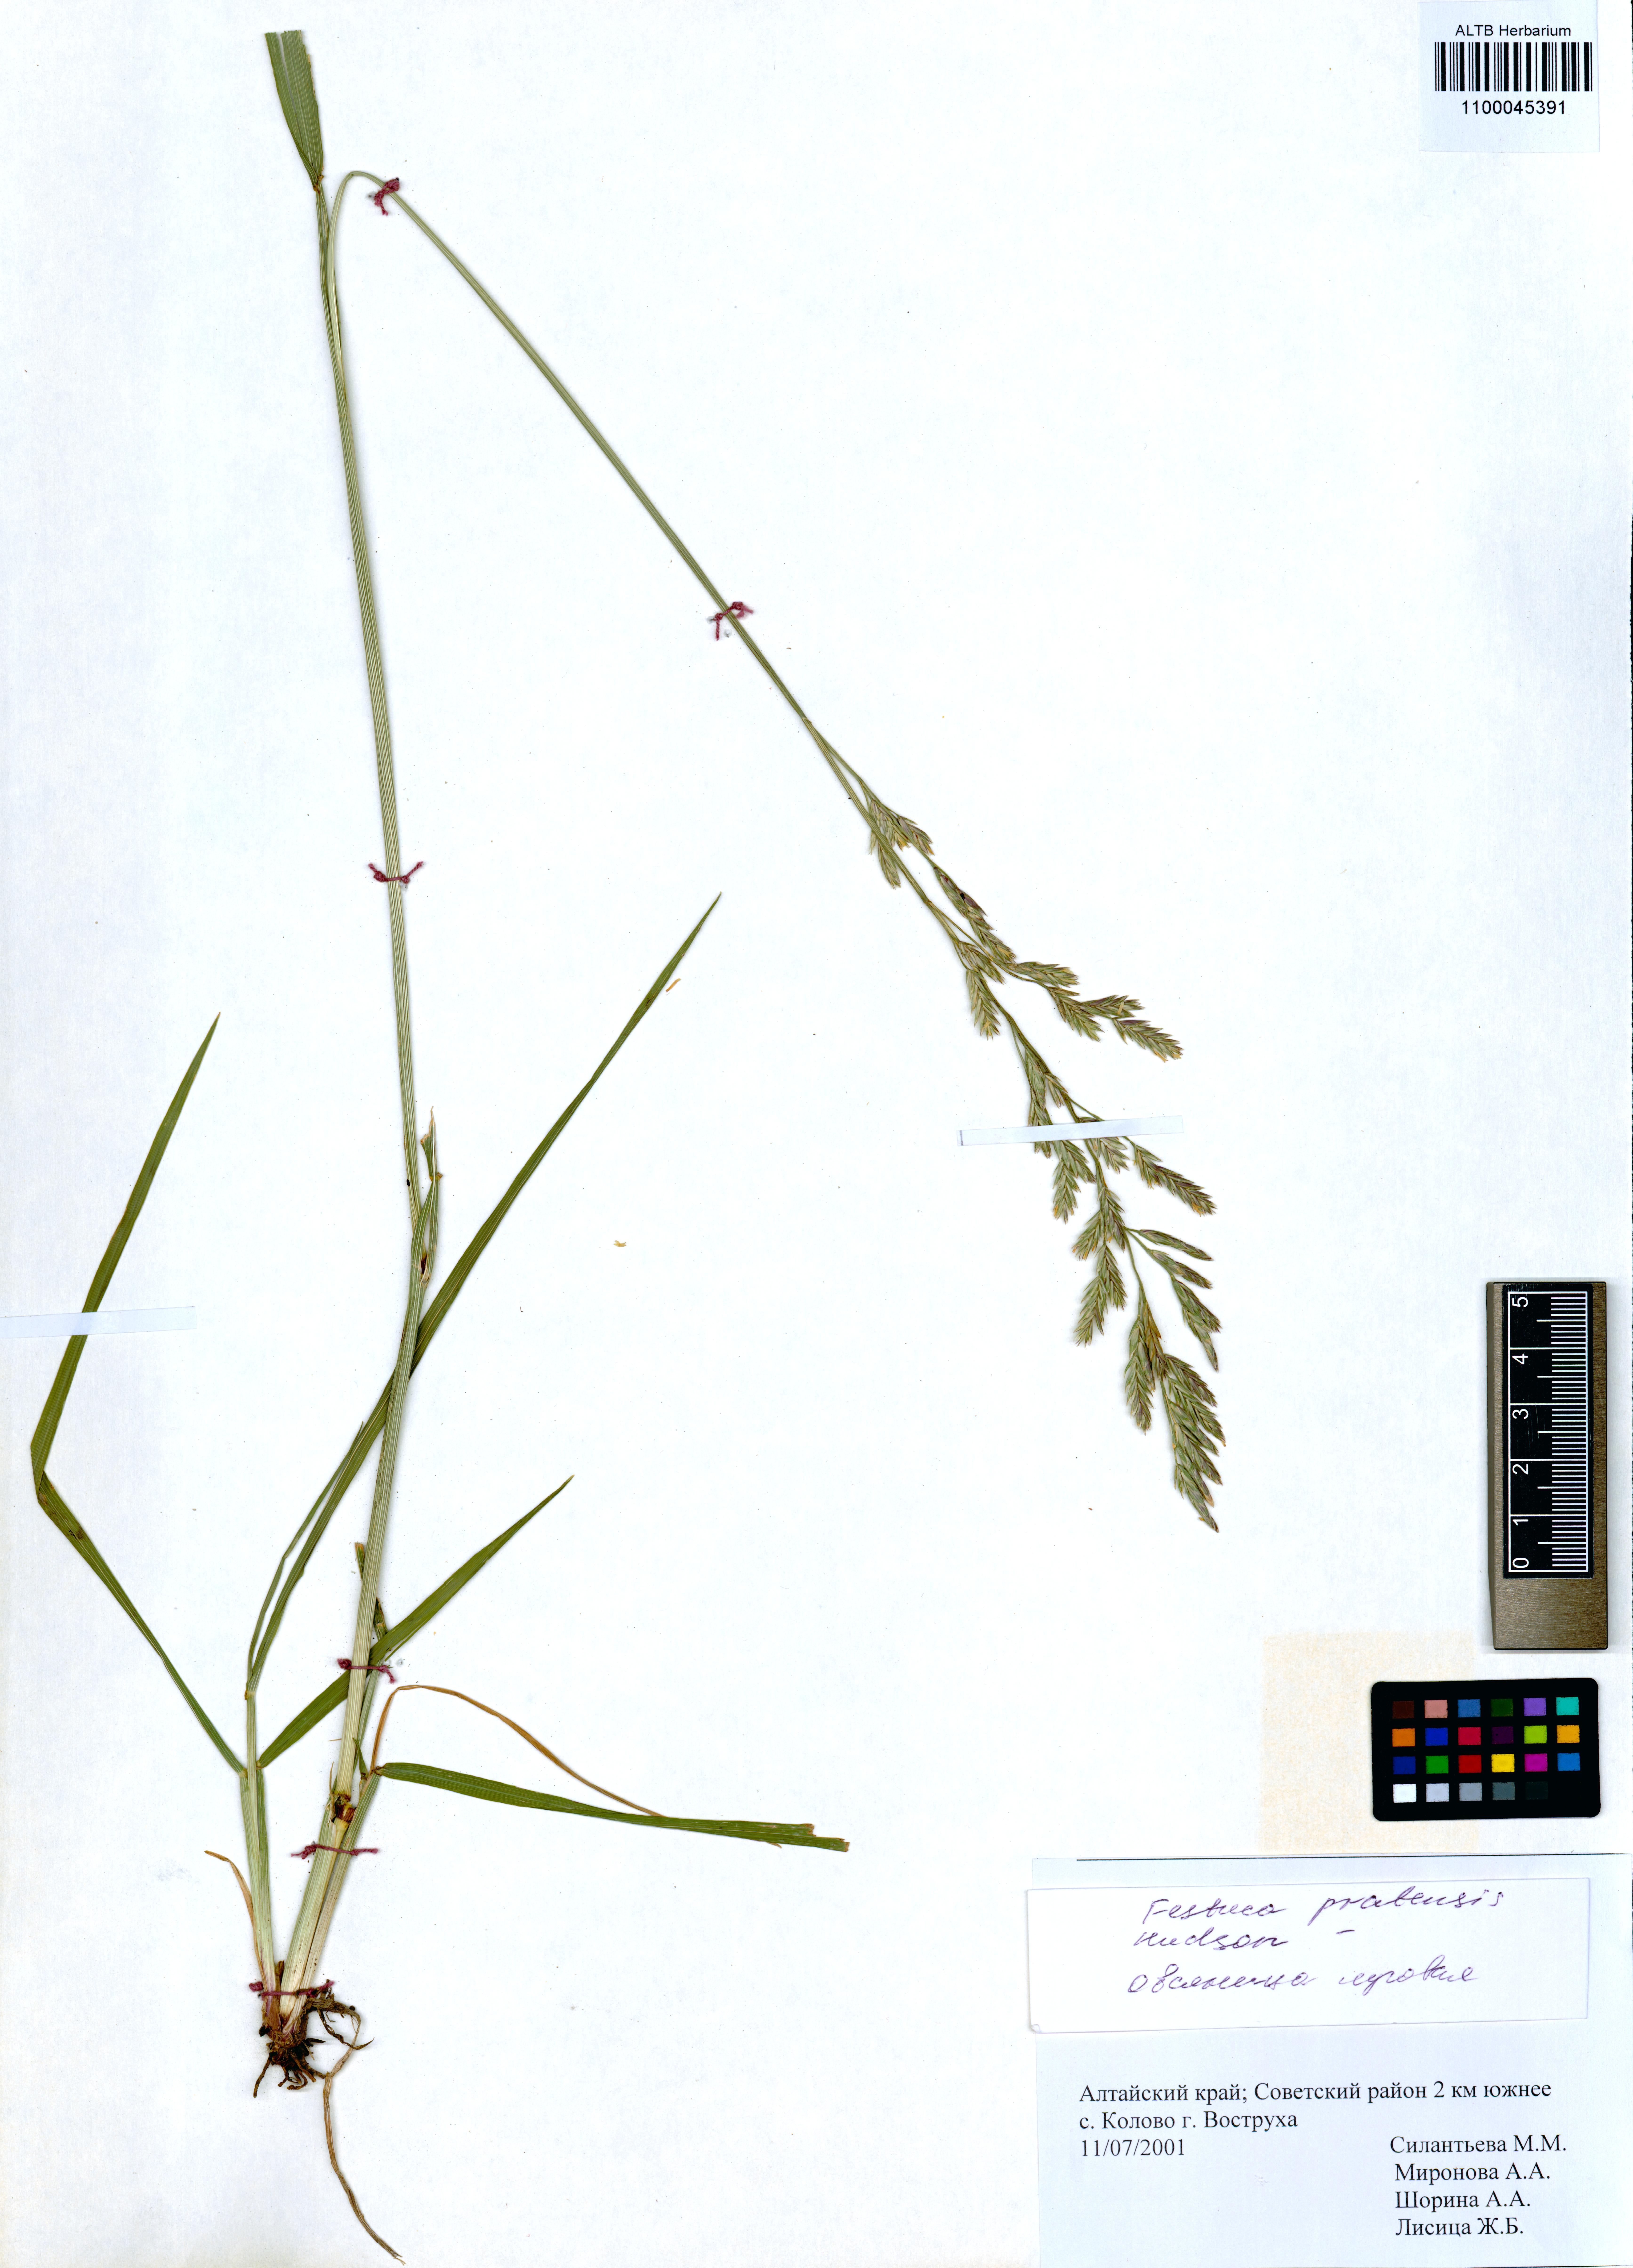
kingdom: Plantae
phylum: Tracheophyta
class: Liliopsida
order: Poales
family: Poaceae
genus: Lolium
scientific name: Lolium pratense
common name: Dover grass
